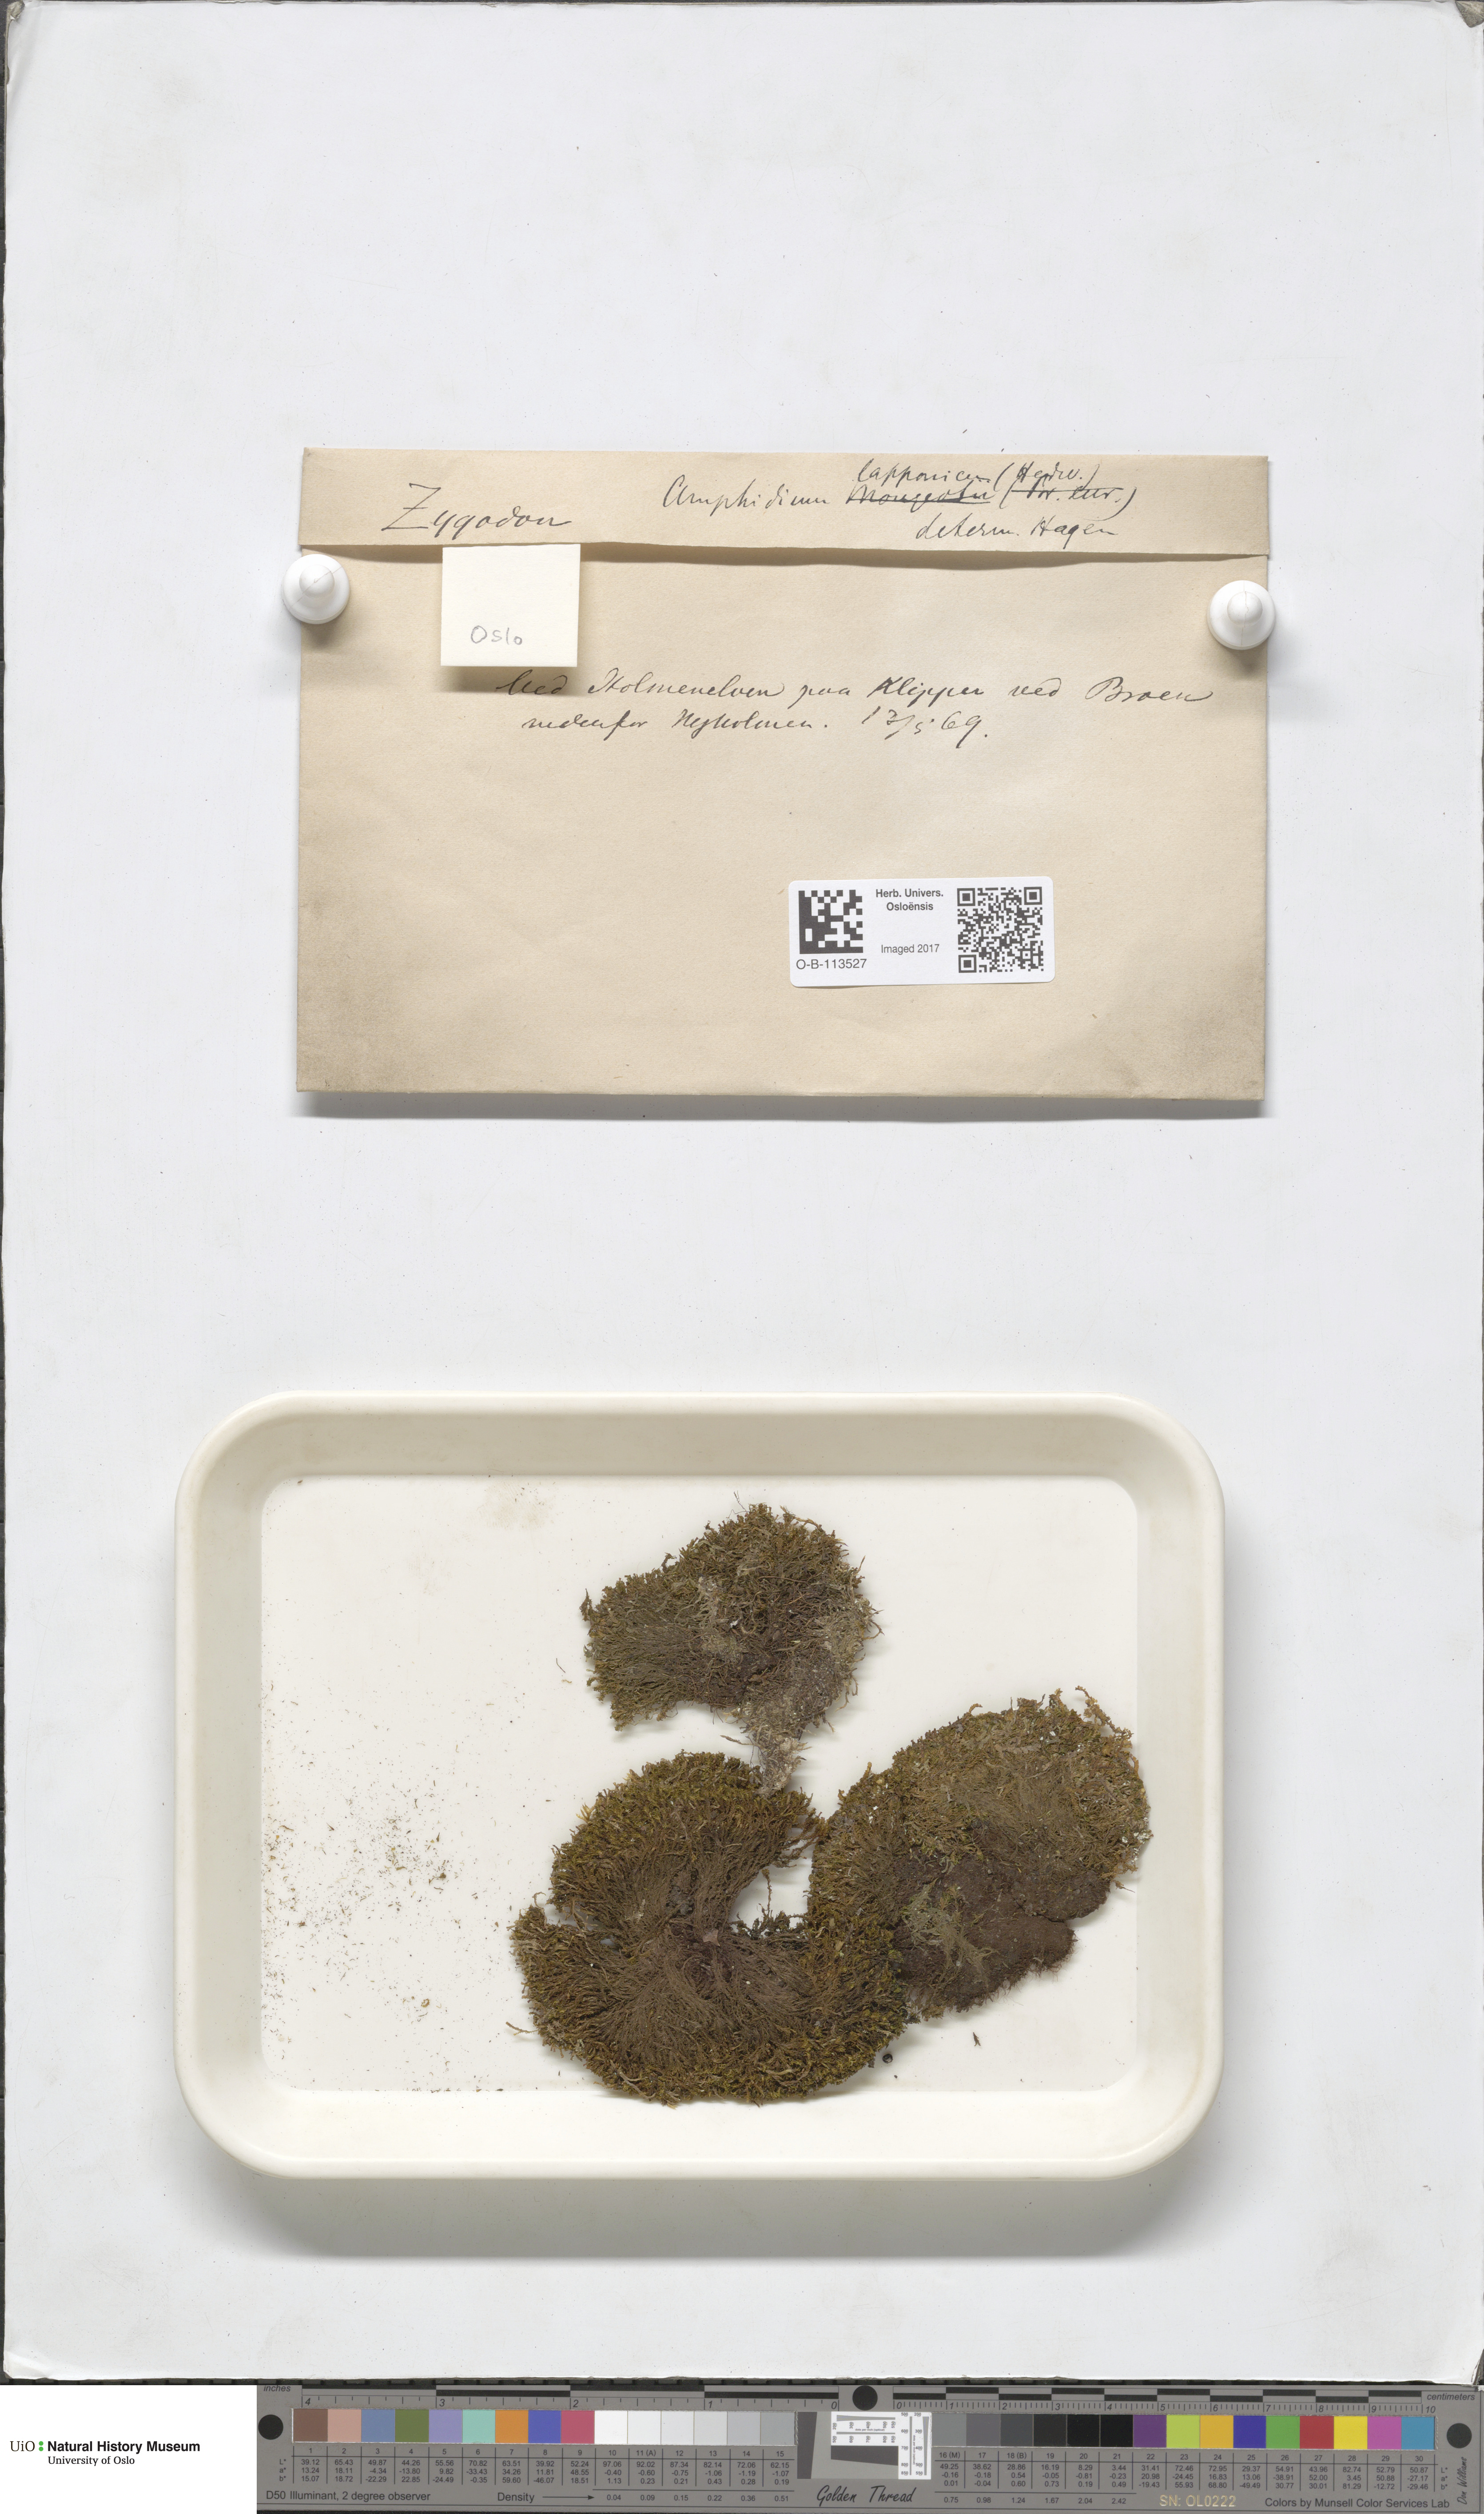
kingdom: Plantae
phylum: Bryophyta
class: Bryopsida
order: Dicranales
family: Amphidiaceae
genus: Amphidium
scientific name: Amphidium lapponicum
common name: Lapland yoke moss
